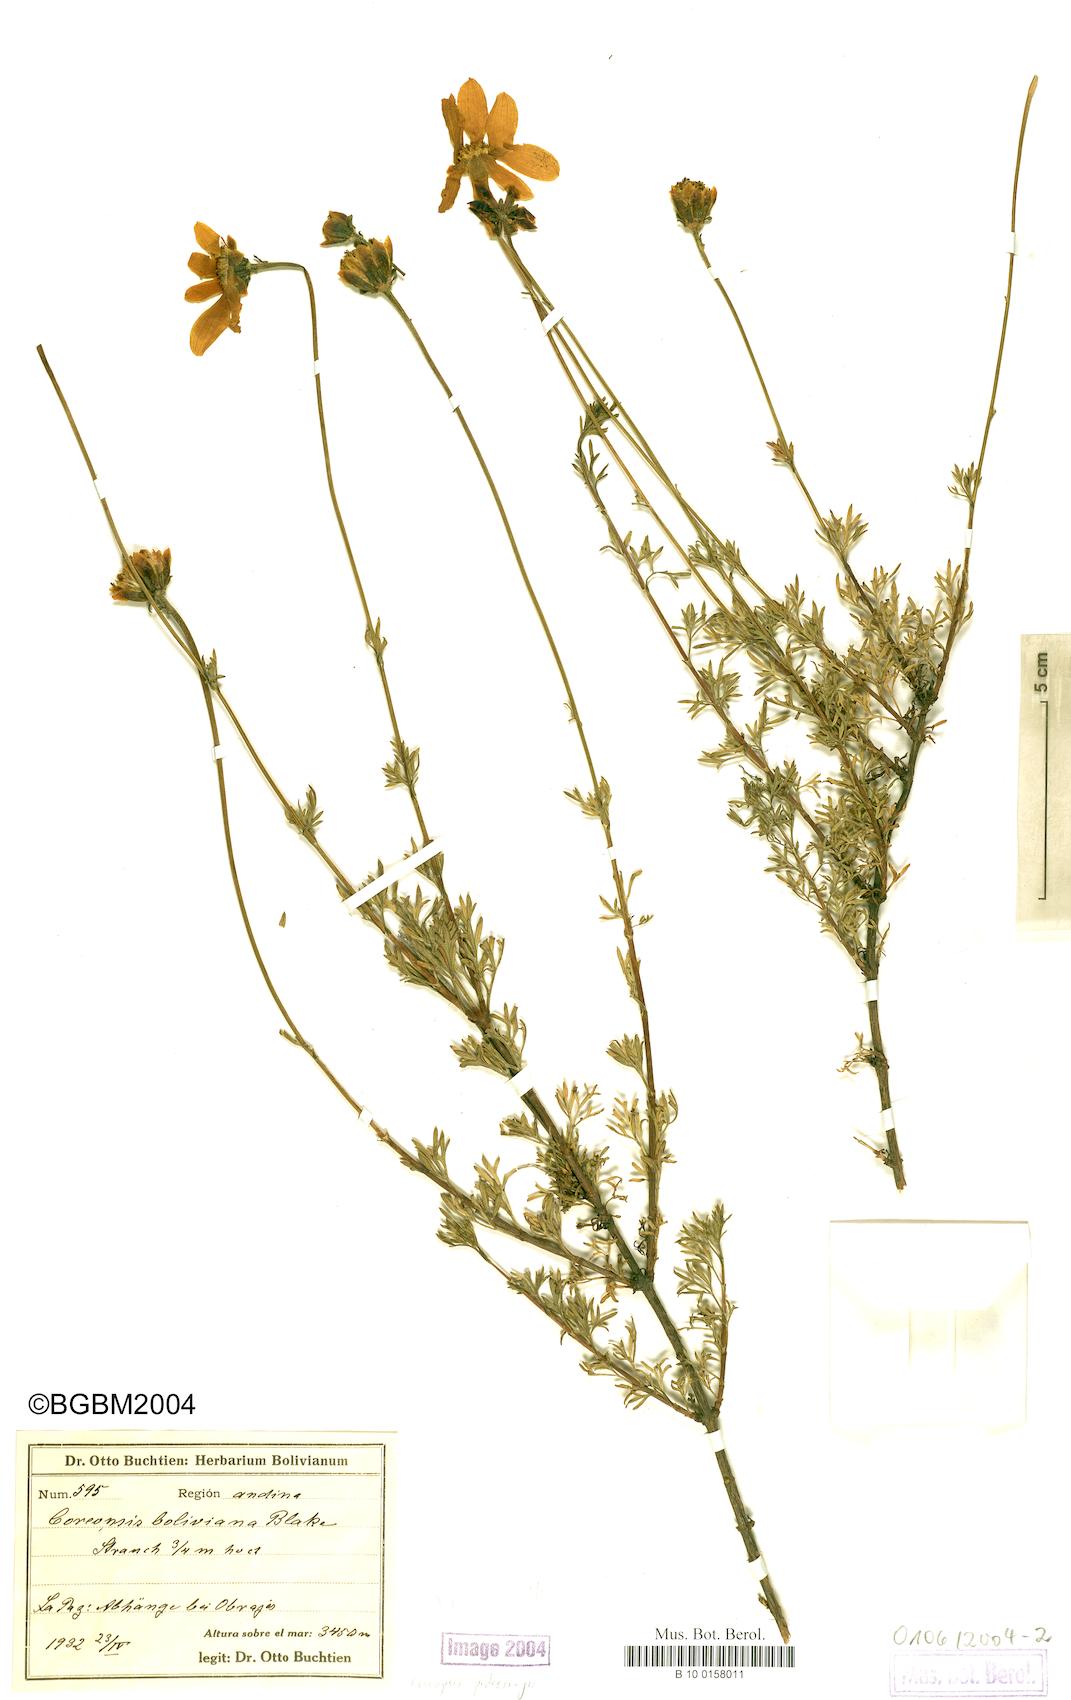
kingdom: Plantae
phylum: Tracheophyta
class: Magnoliopsida
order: Asterales
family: Asteraceae
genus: Coreopsis
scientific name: Coreopsis pickeringii
